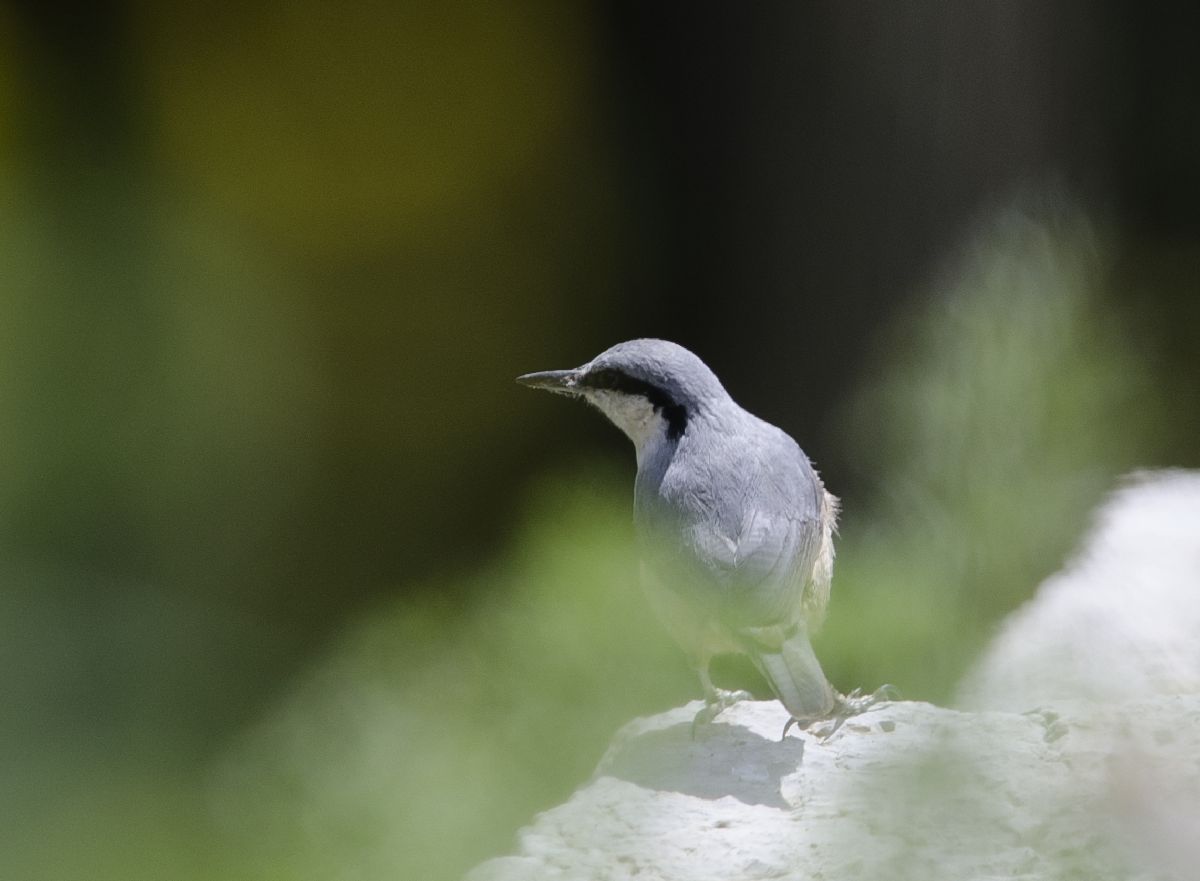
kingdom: Animalia
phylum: Chordata
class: Aves
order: Passeriformes
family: Sittidae
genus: Sitta
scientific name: Sitta neumayer
